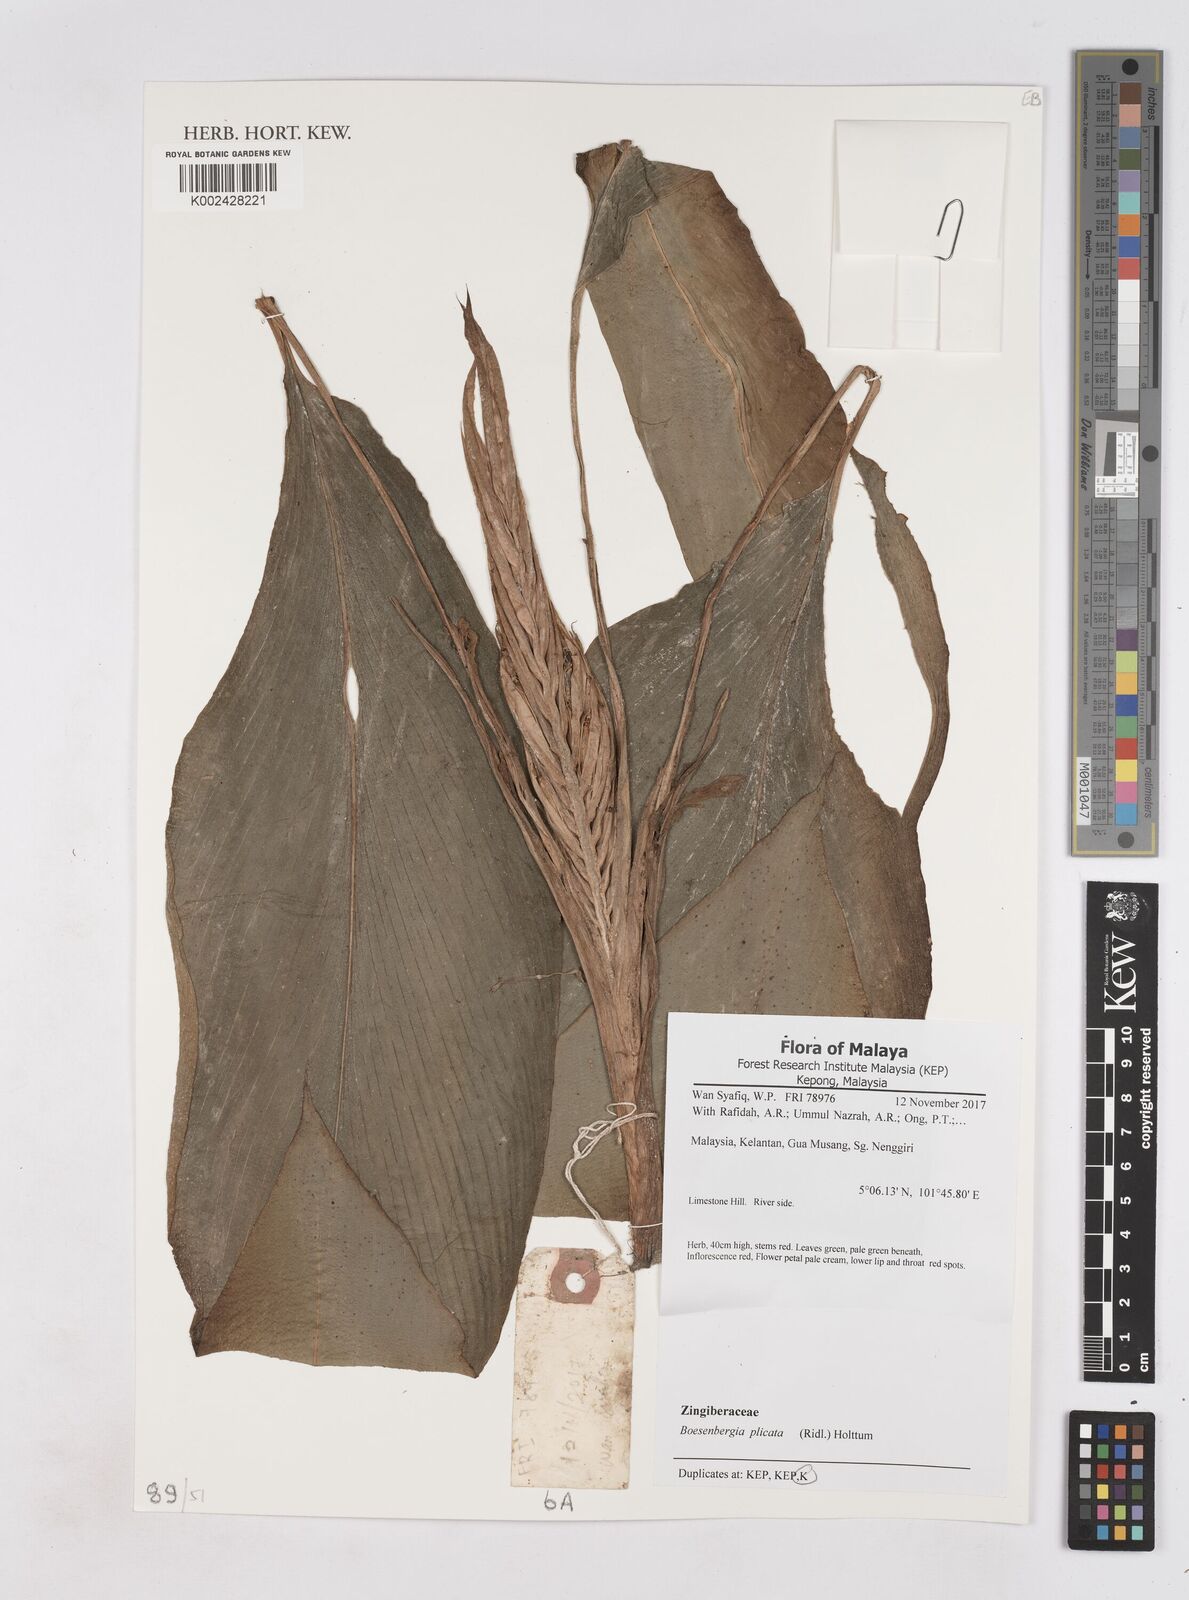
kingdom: Plantae
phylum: Tracheophyta
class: Liliopsida
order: Zingiberales
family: Zingiberaceae
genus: Boesenbergia
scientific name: Boesenbergia plicata
